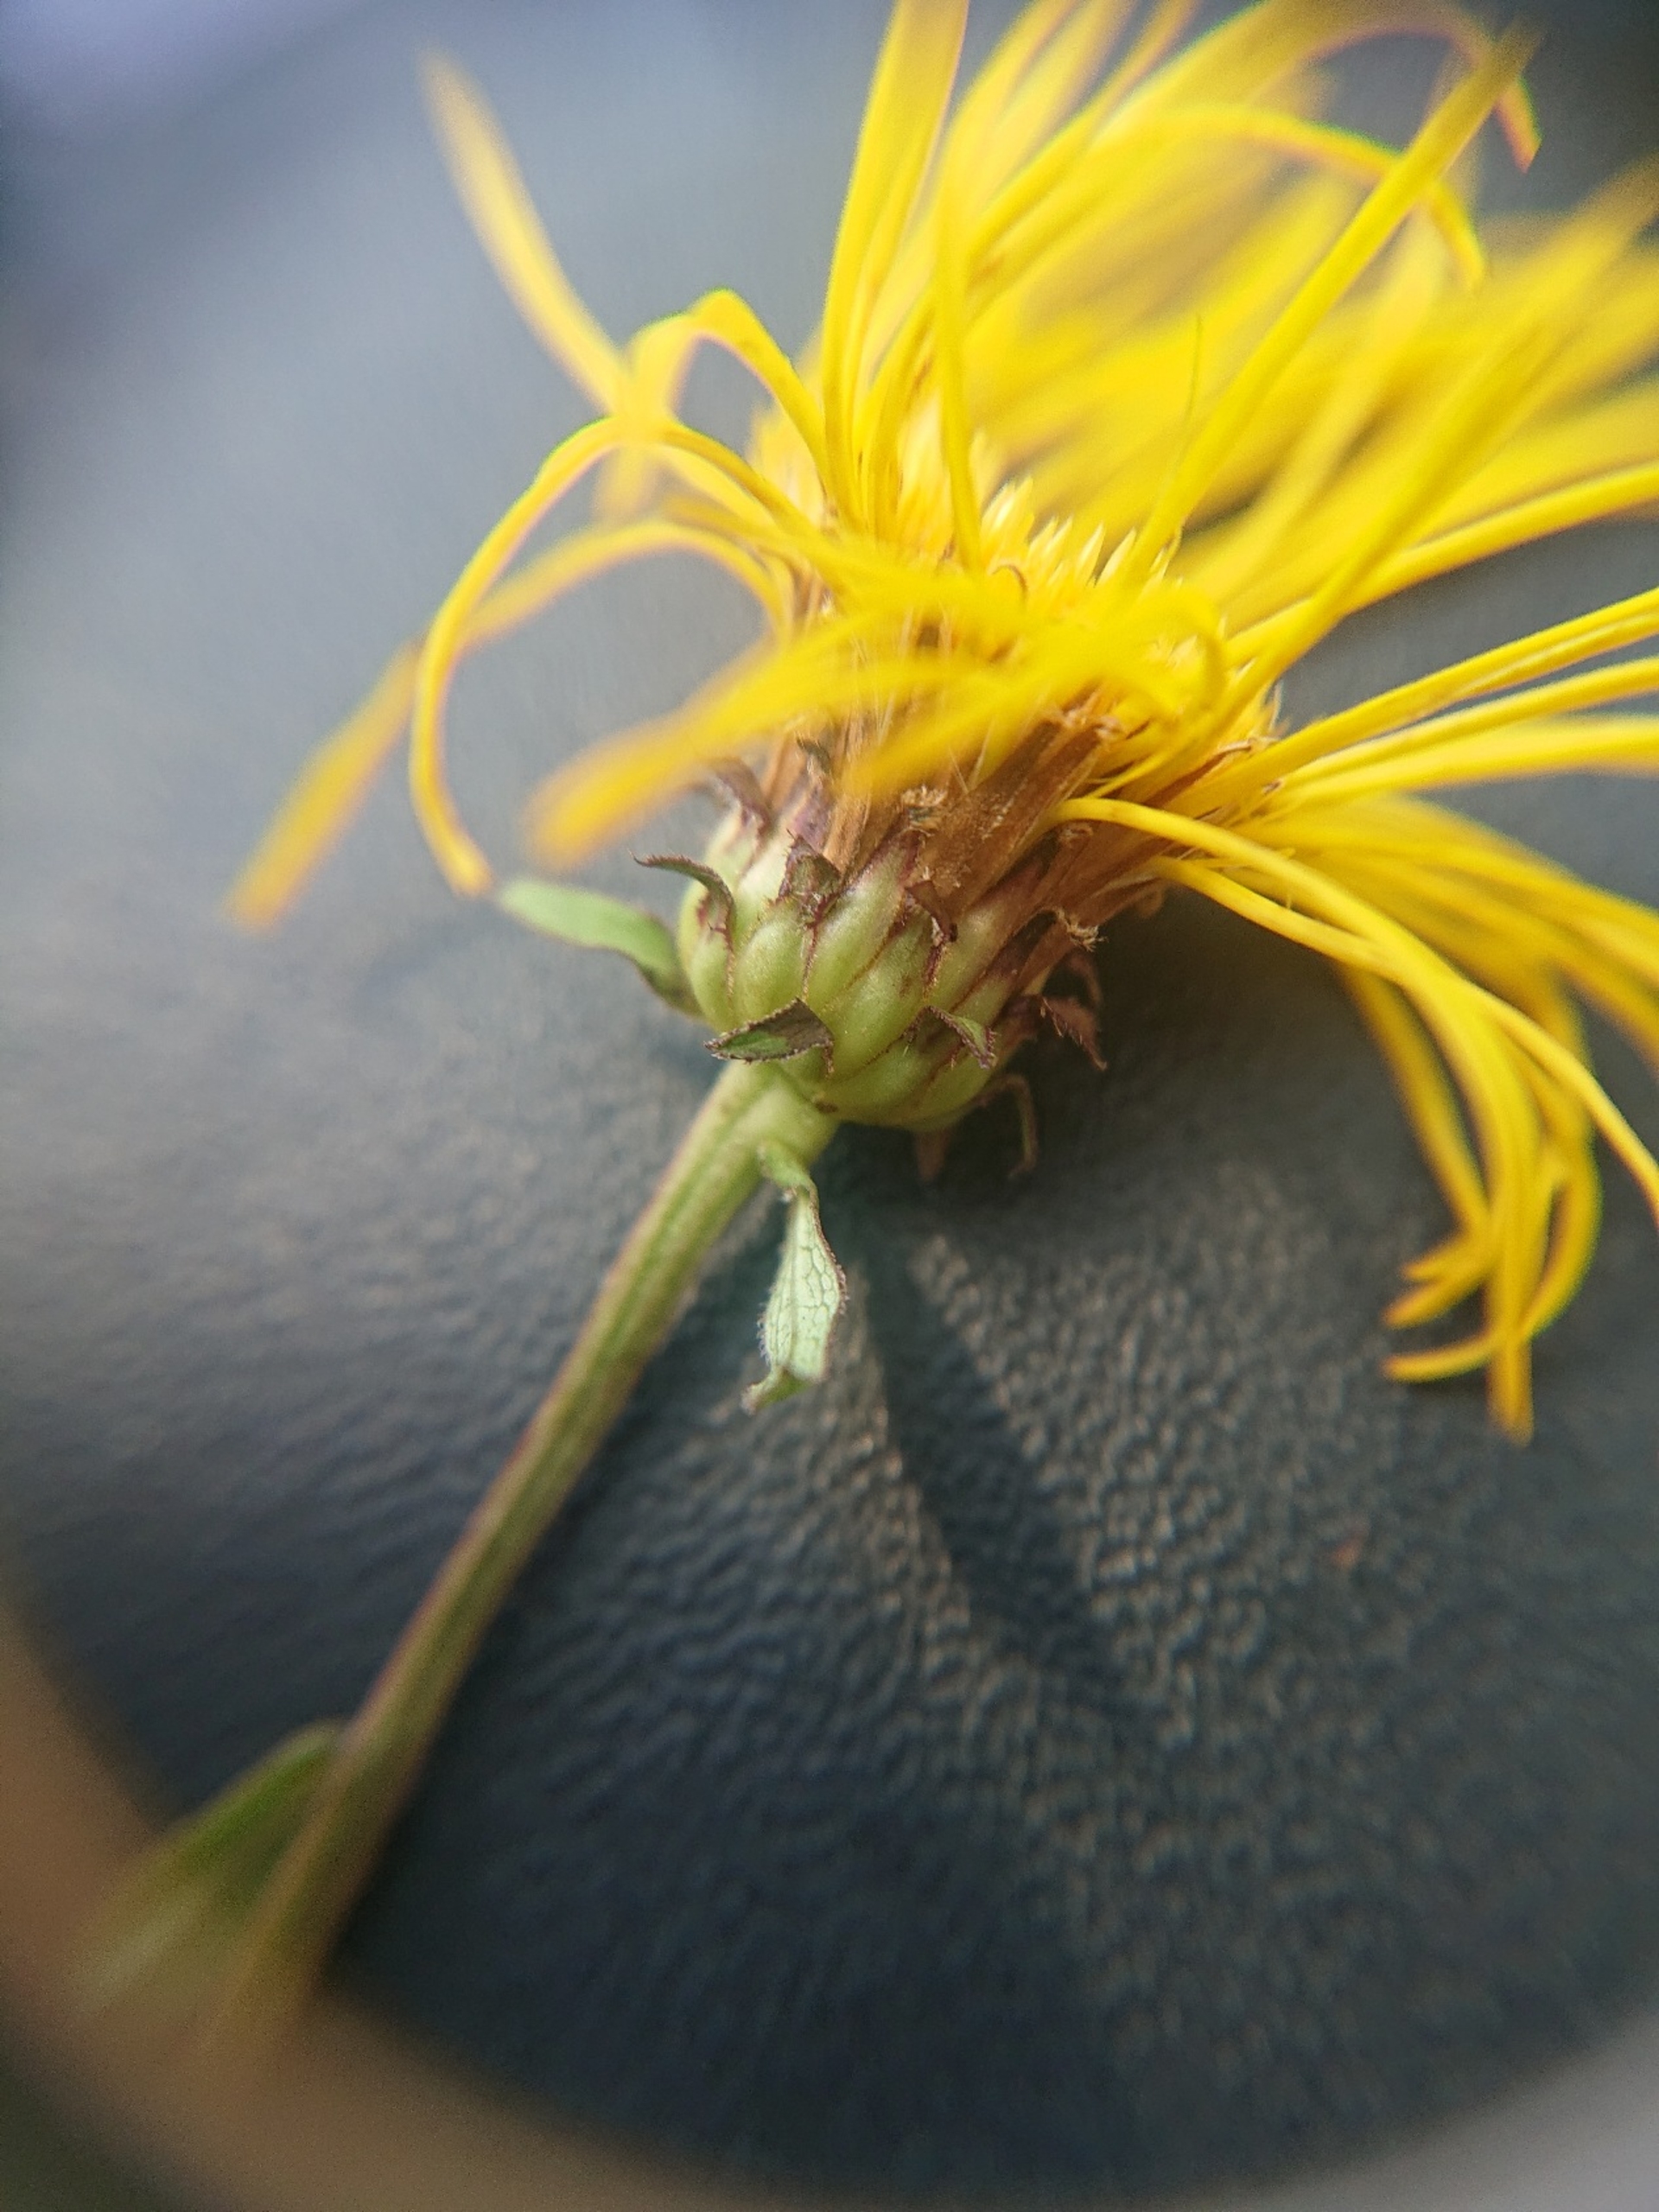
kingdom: Plantae
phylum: Tracheophyta
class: Magnoliopsida
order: Asterales
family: Asteraceae
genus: Pentanema
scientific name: Pentanema salicinum
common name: Pile-alant
